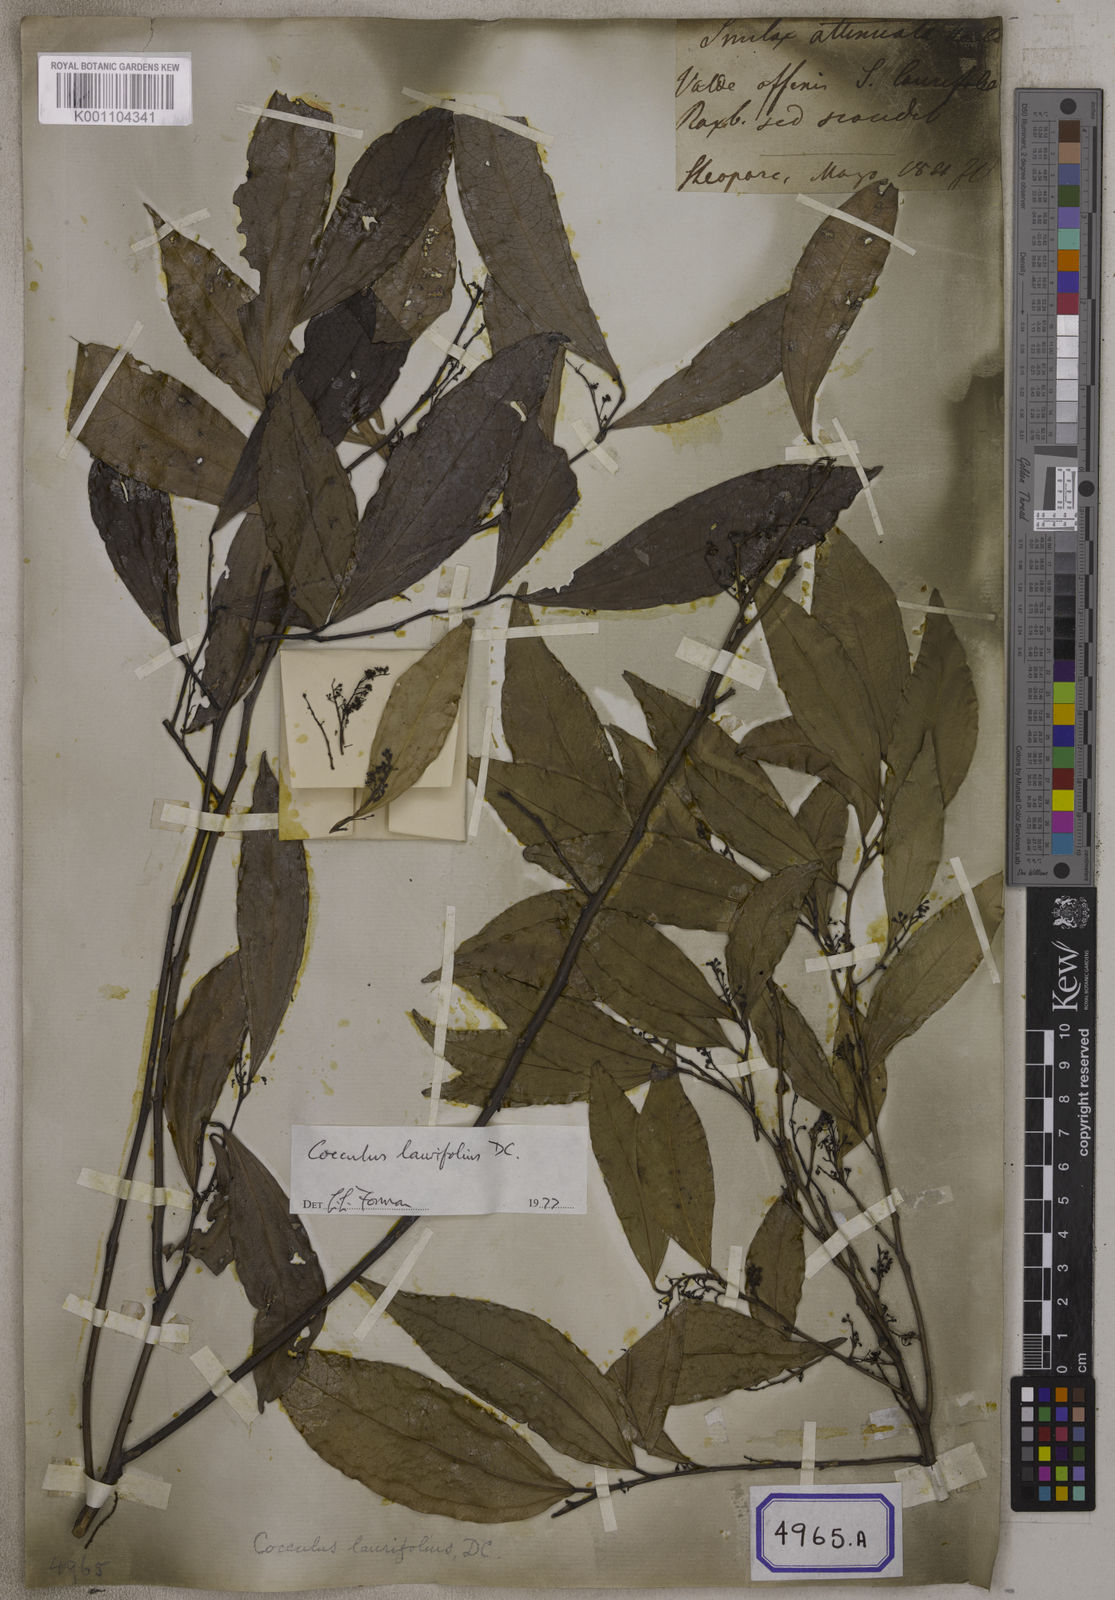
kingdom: Plantae
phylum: Tracheophyta
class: Magnoliopsida
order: Ranunculales
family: Menispermaceae
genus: Cocculus
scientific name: Cocculus laurifolius
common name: Laurel-leaf snailseed
